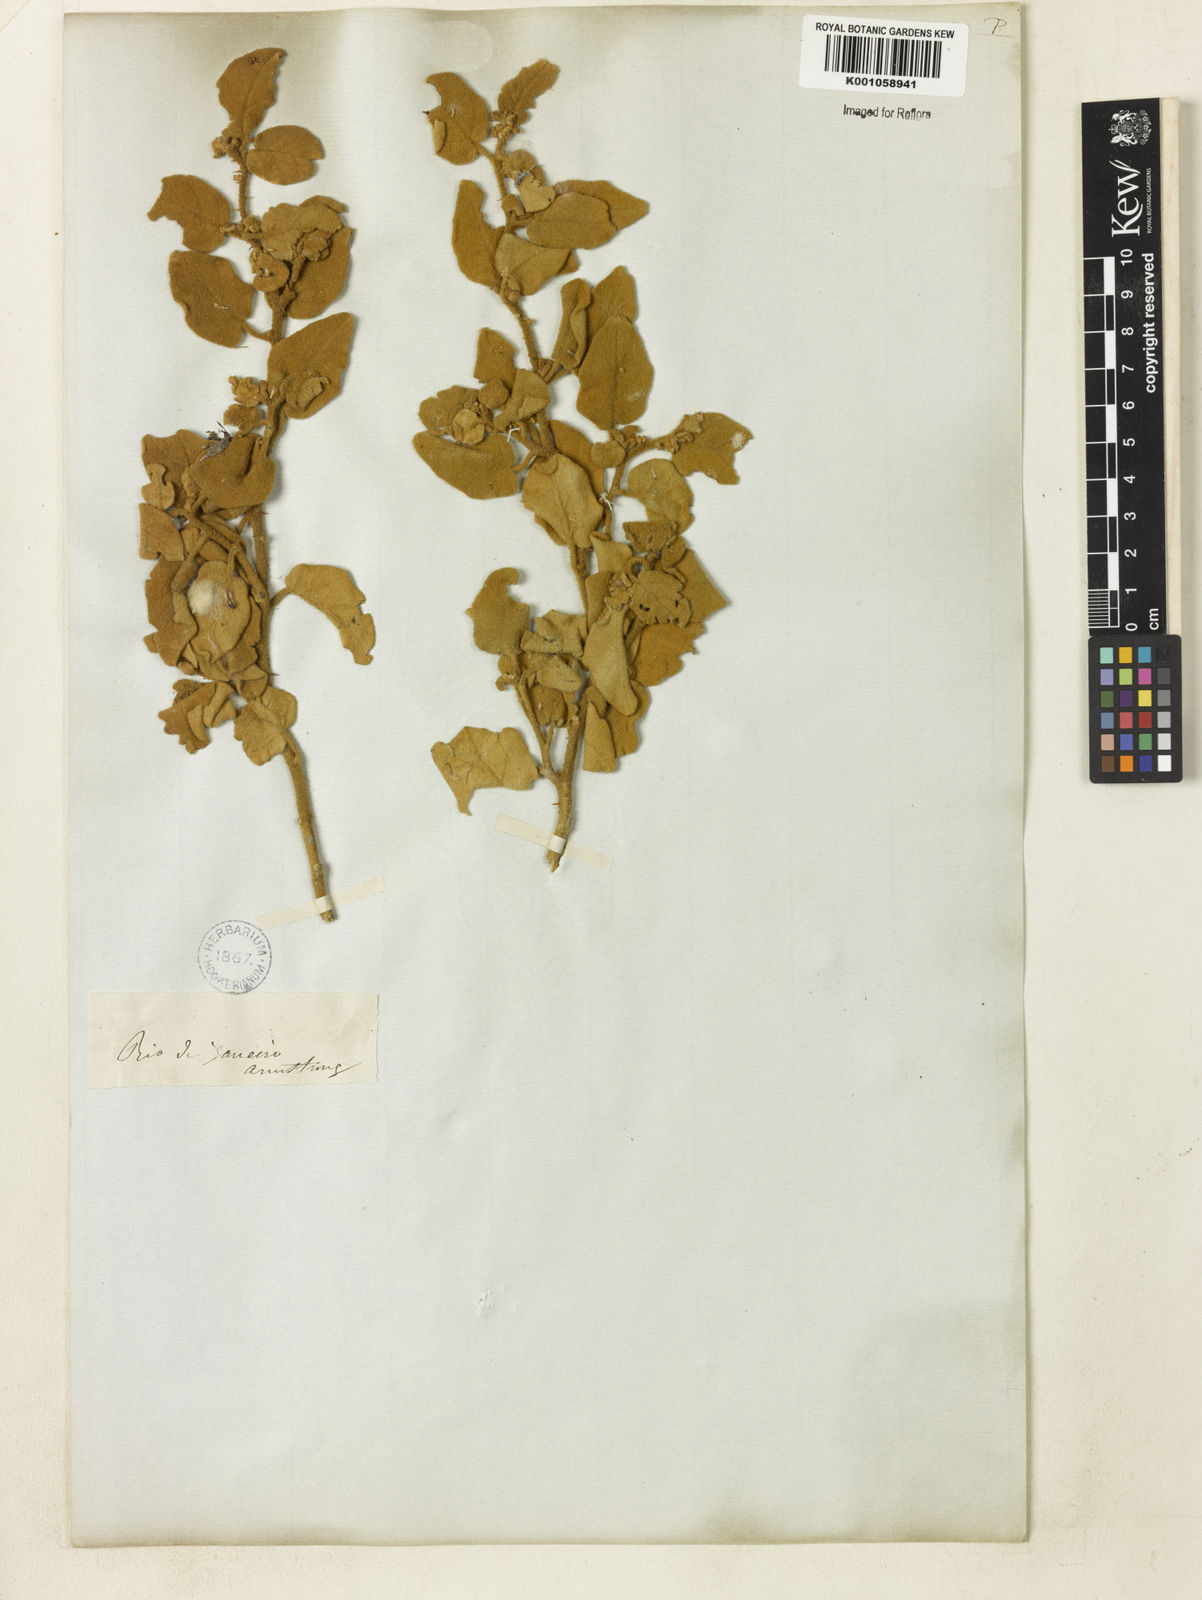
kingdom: Plantae
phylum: Tracheophyta
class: Magnoliopsida
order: Solanales
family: Solanaceae
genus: Solanum
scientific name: Solanum
